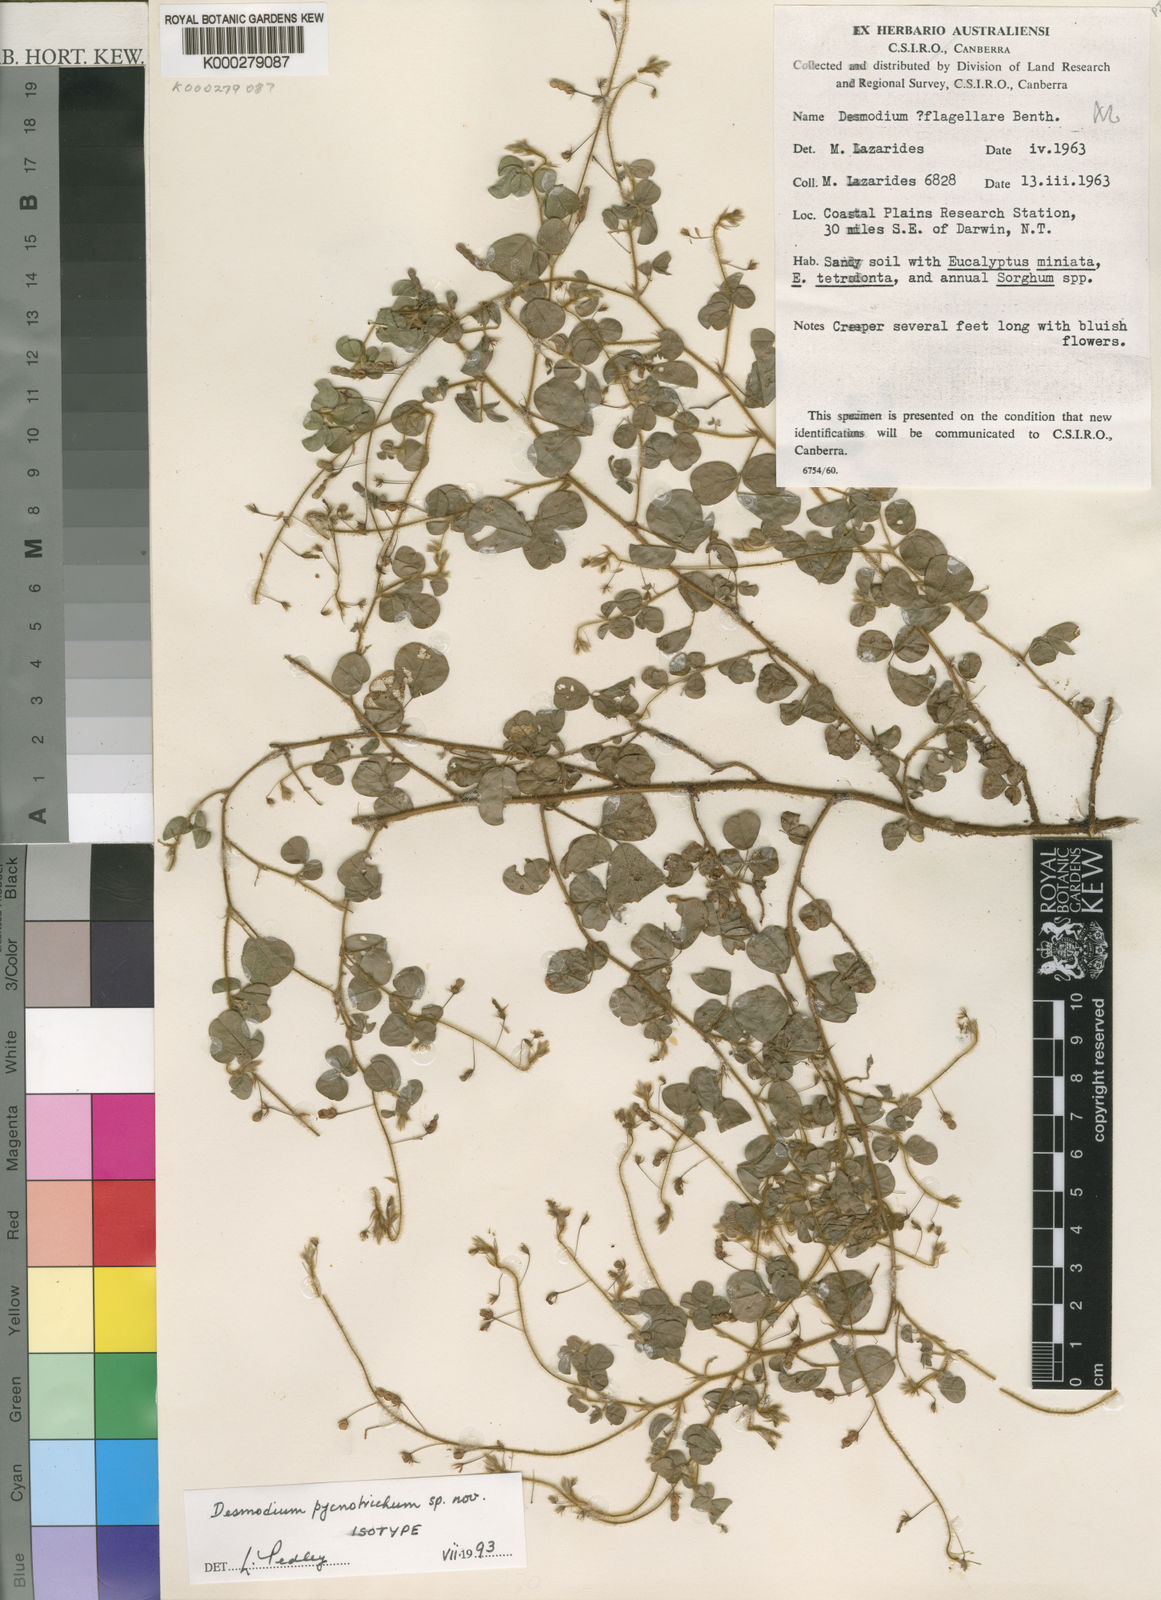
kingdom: Plantae
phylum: Tracheophyta
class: Magnoliopsida
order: Fabales
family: Fabaceae
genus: Grona
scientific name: Grona pycnotricha
